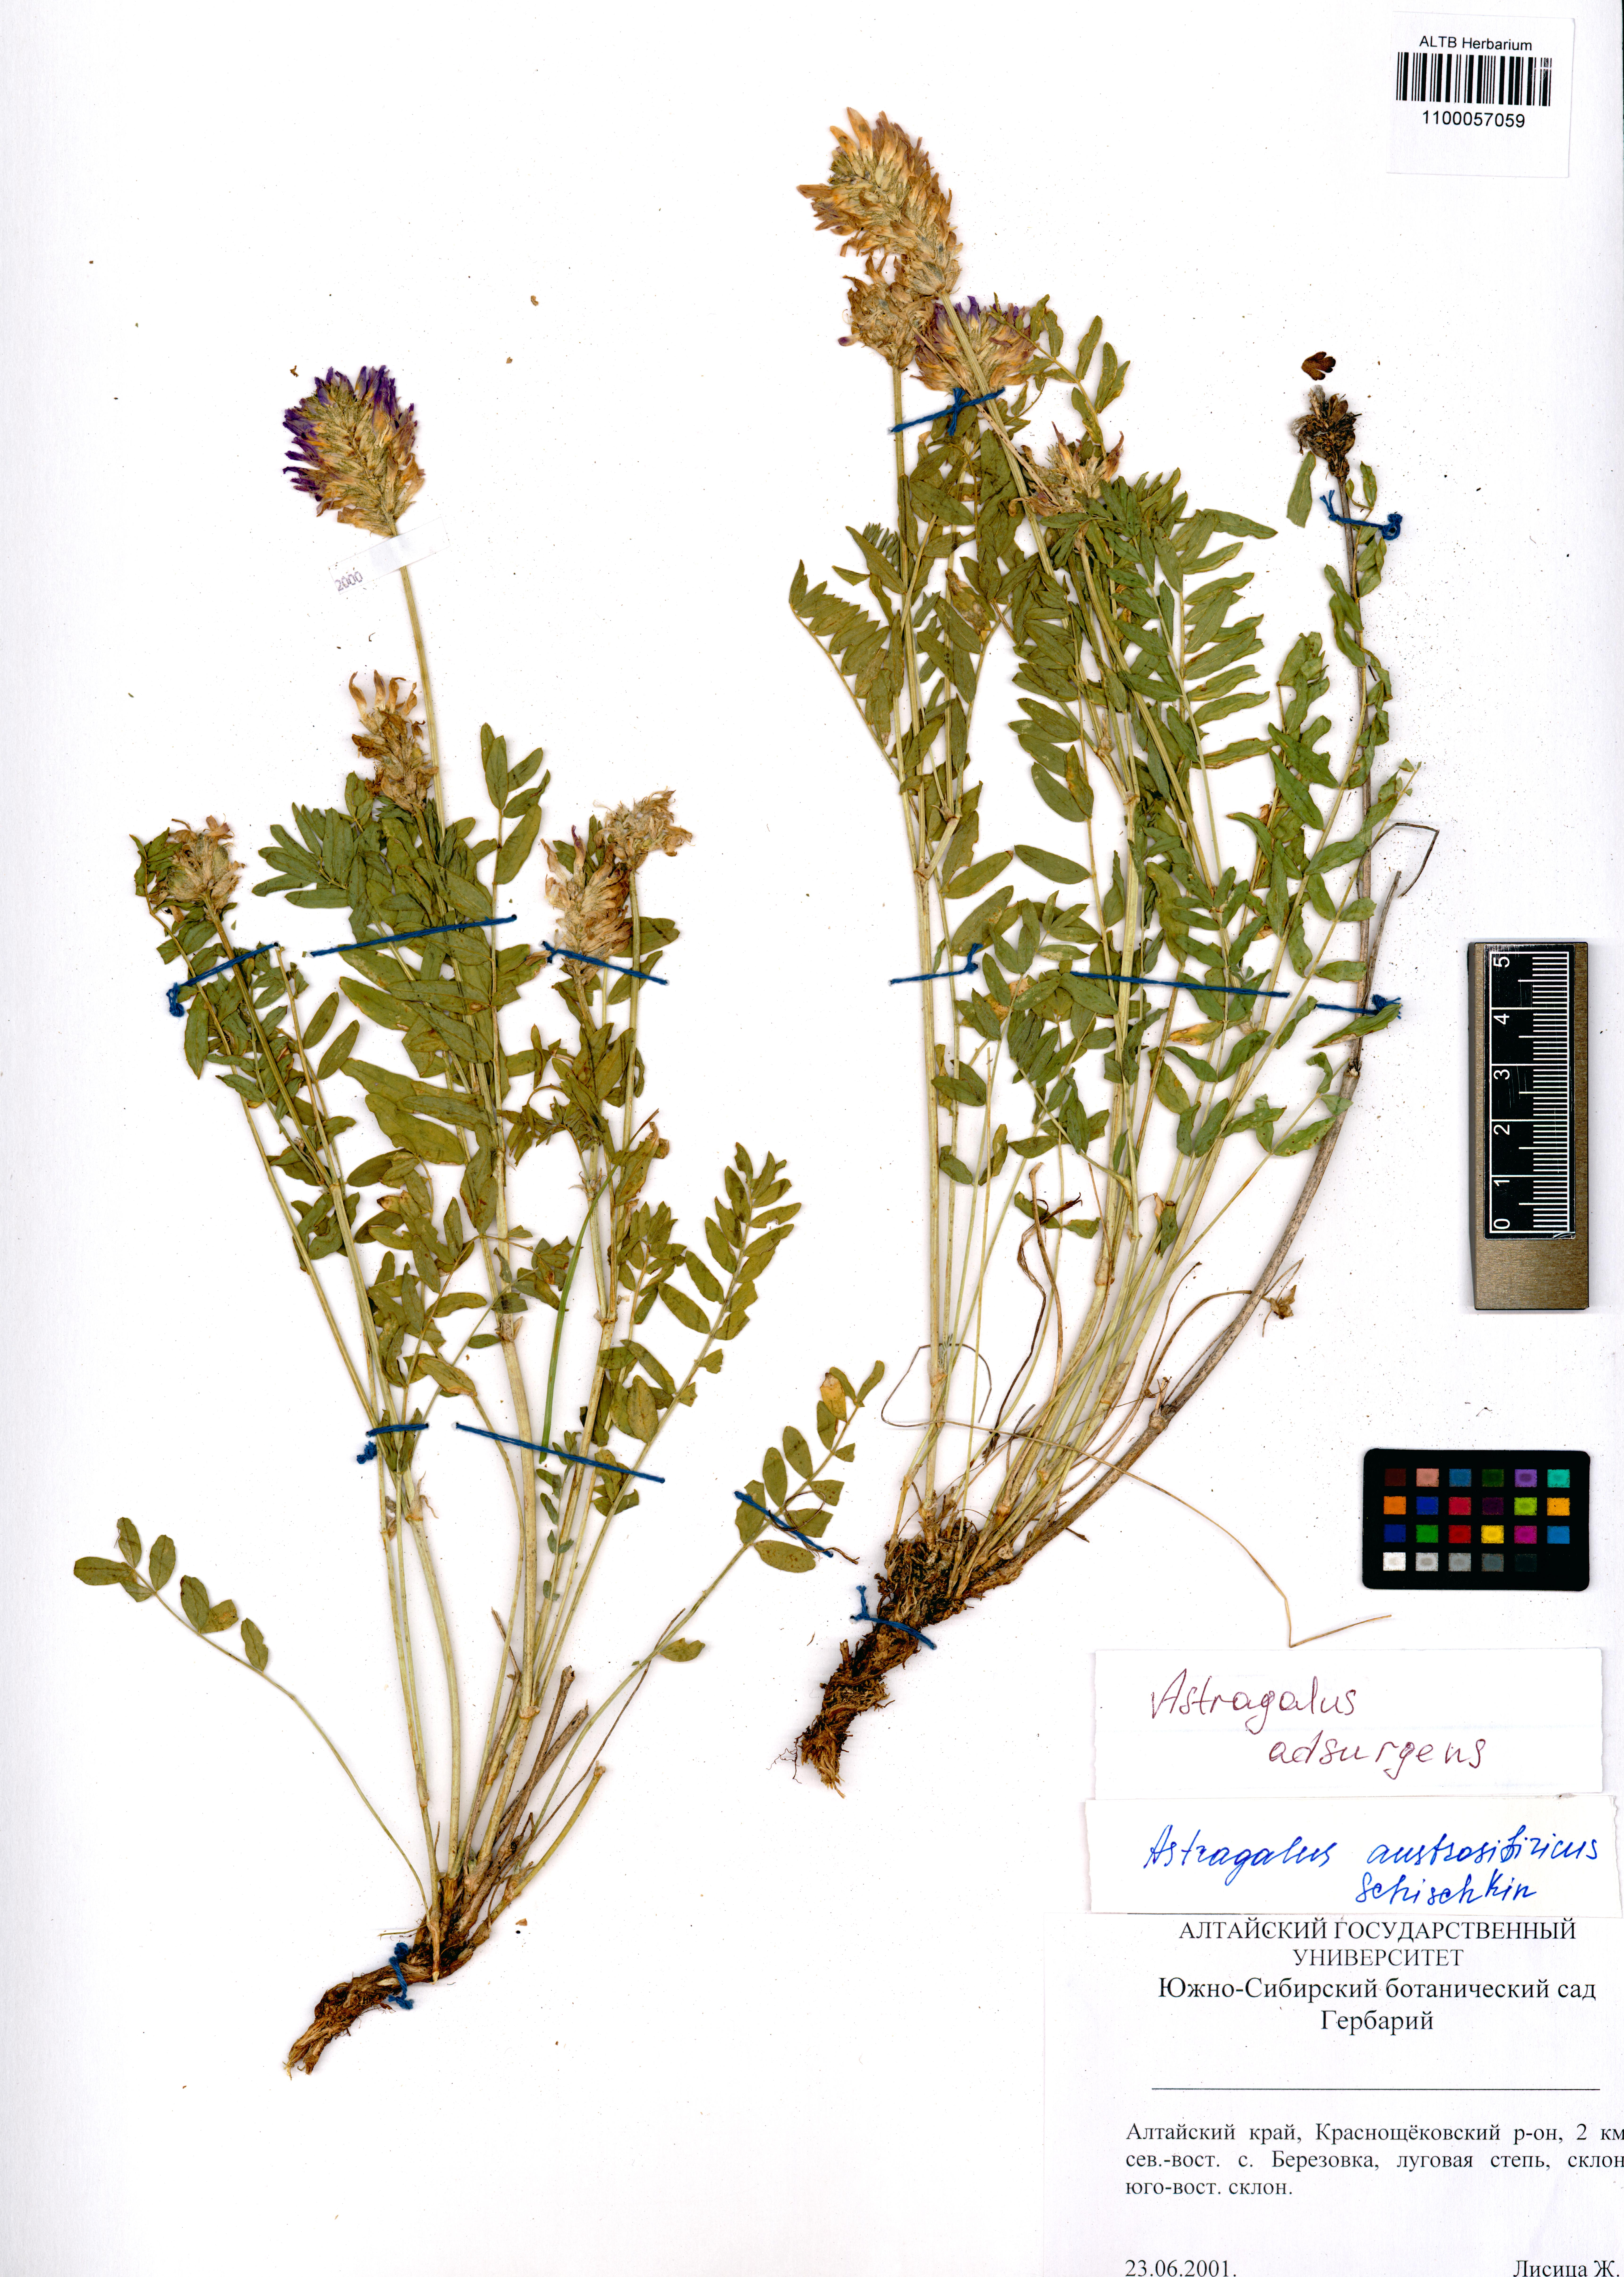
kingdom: Plantae
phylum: Tracheophyta
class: Magnoliopsida
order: Fabales
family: Fabaceae
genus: Astragalus
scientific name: Astragalus laxmannii
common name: Laxmann's milk-vetch
